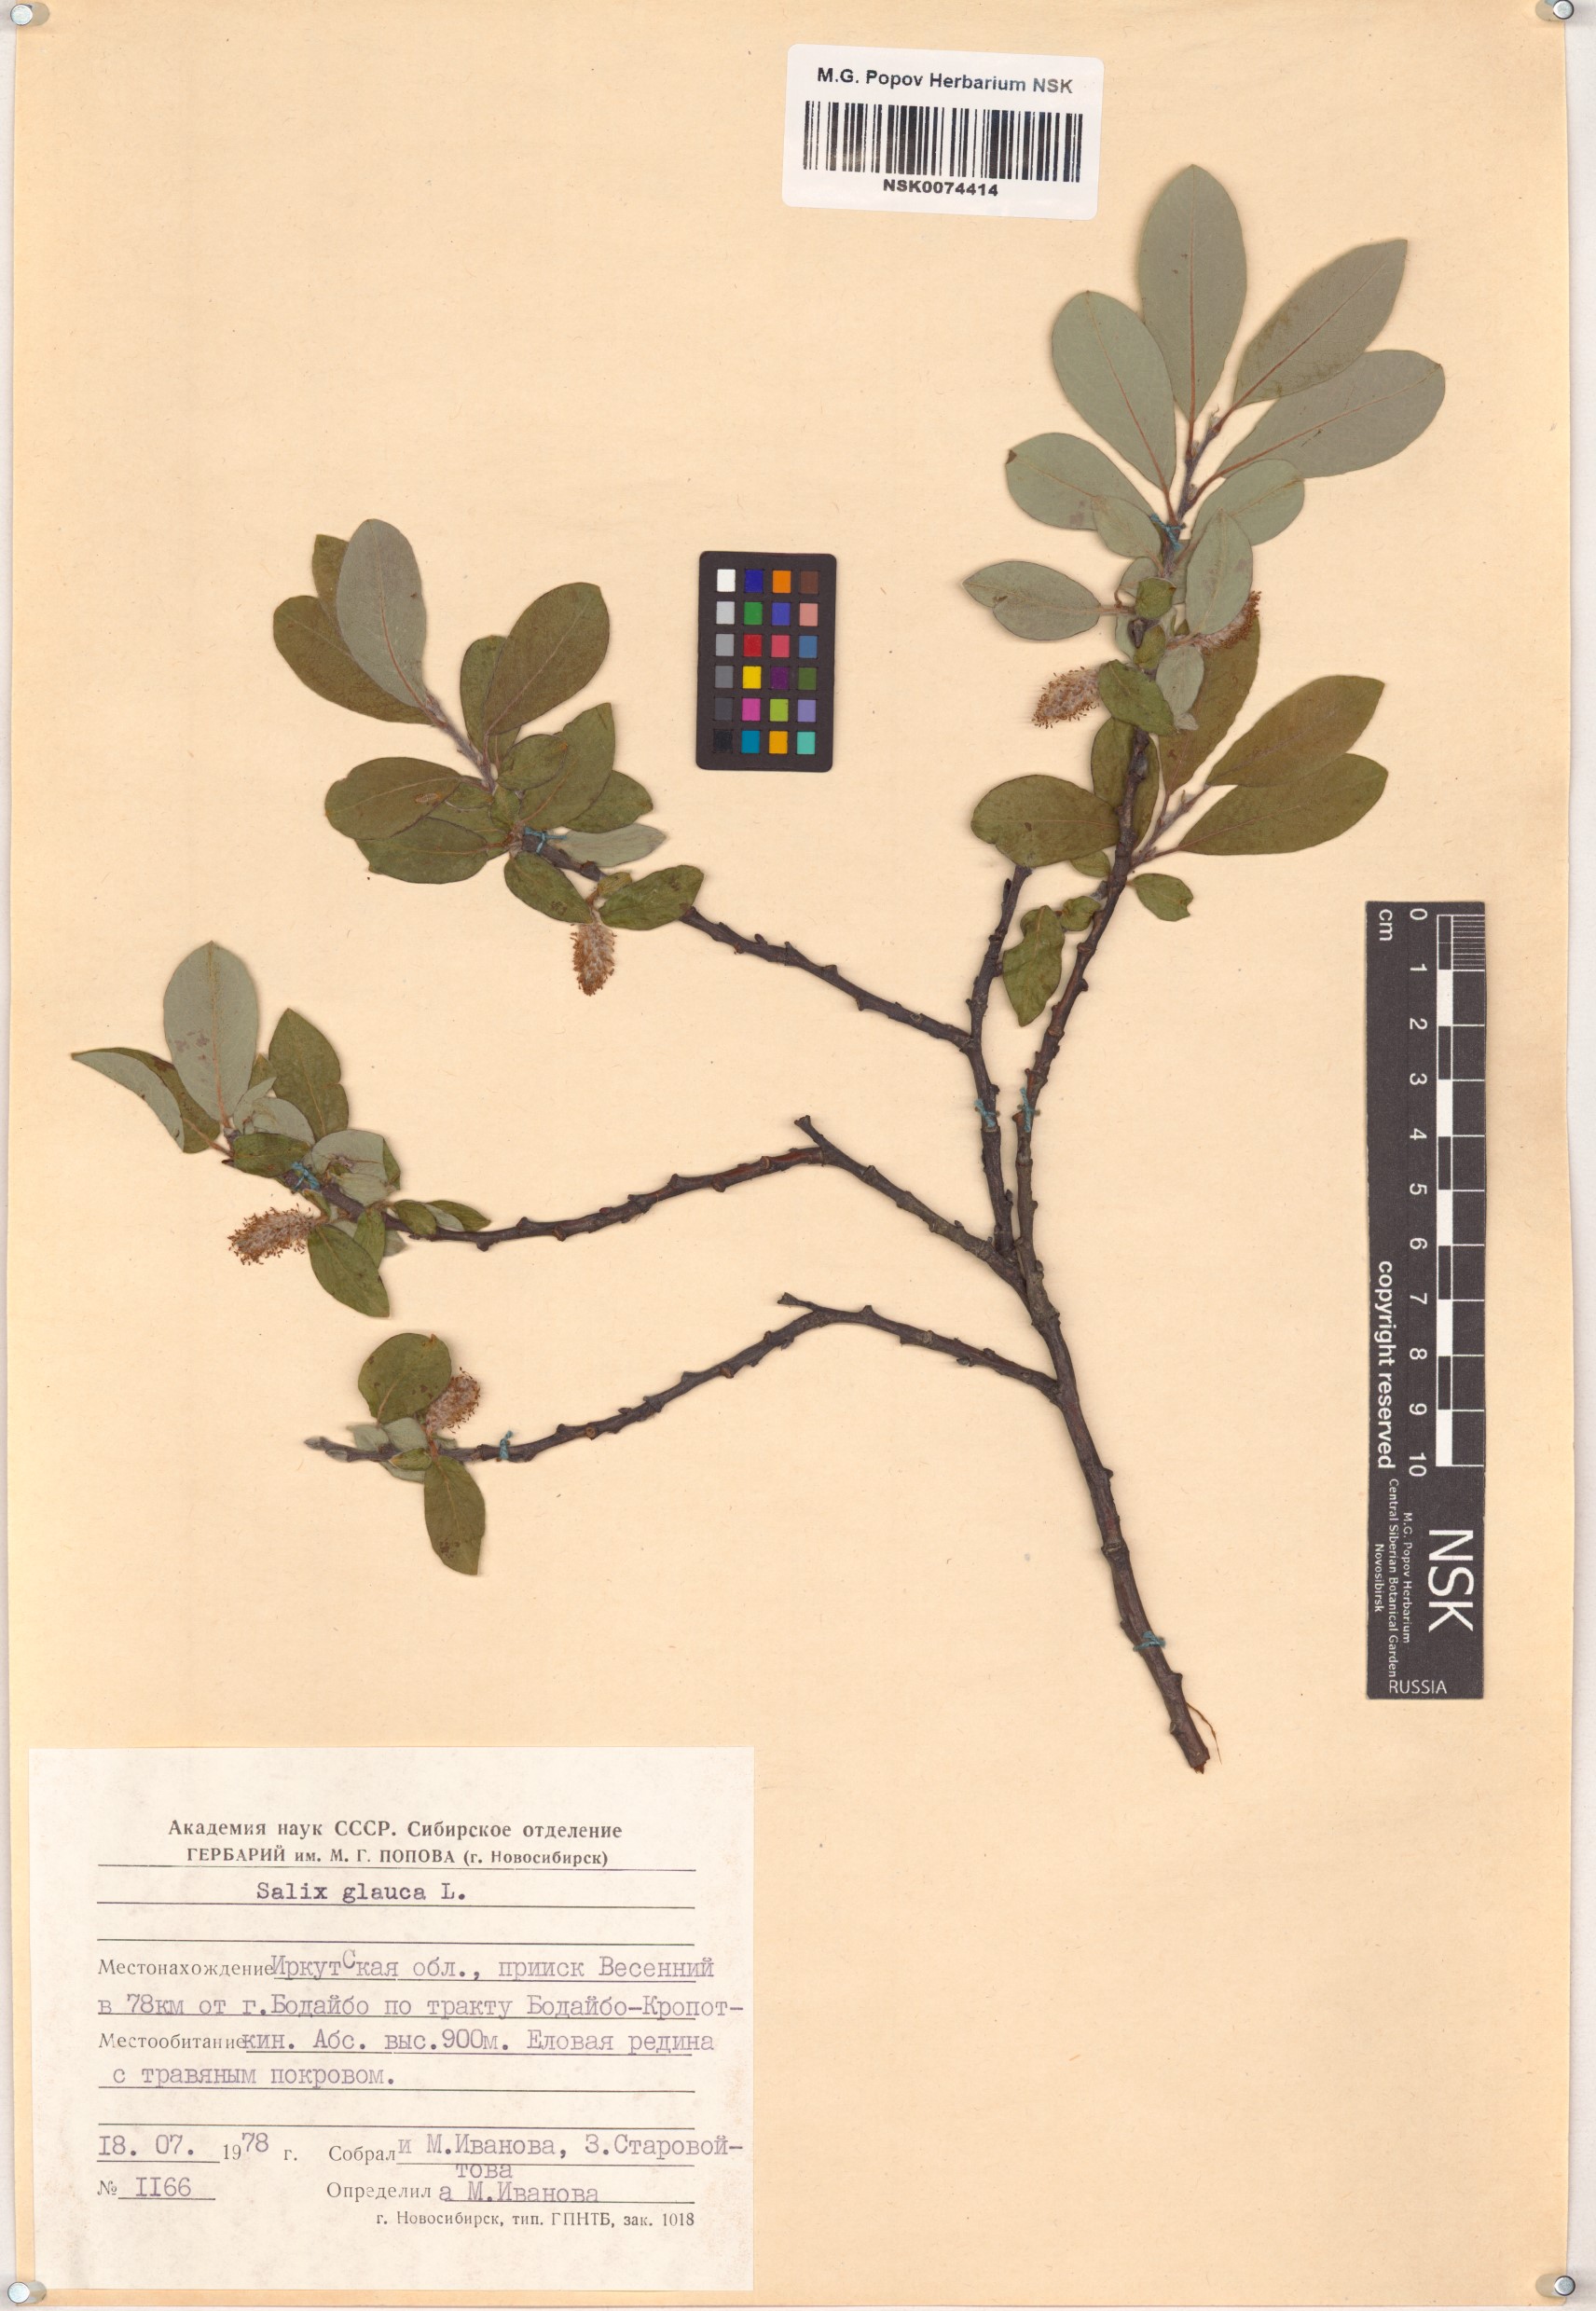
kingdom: Plantae
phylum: Tracheophyta
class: Magnoliopsida
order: Malpighiales
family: Salicaceae
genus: Salix
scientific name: Salix glauca
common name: Glaucous willow
